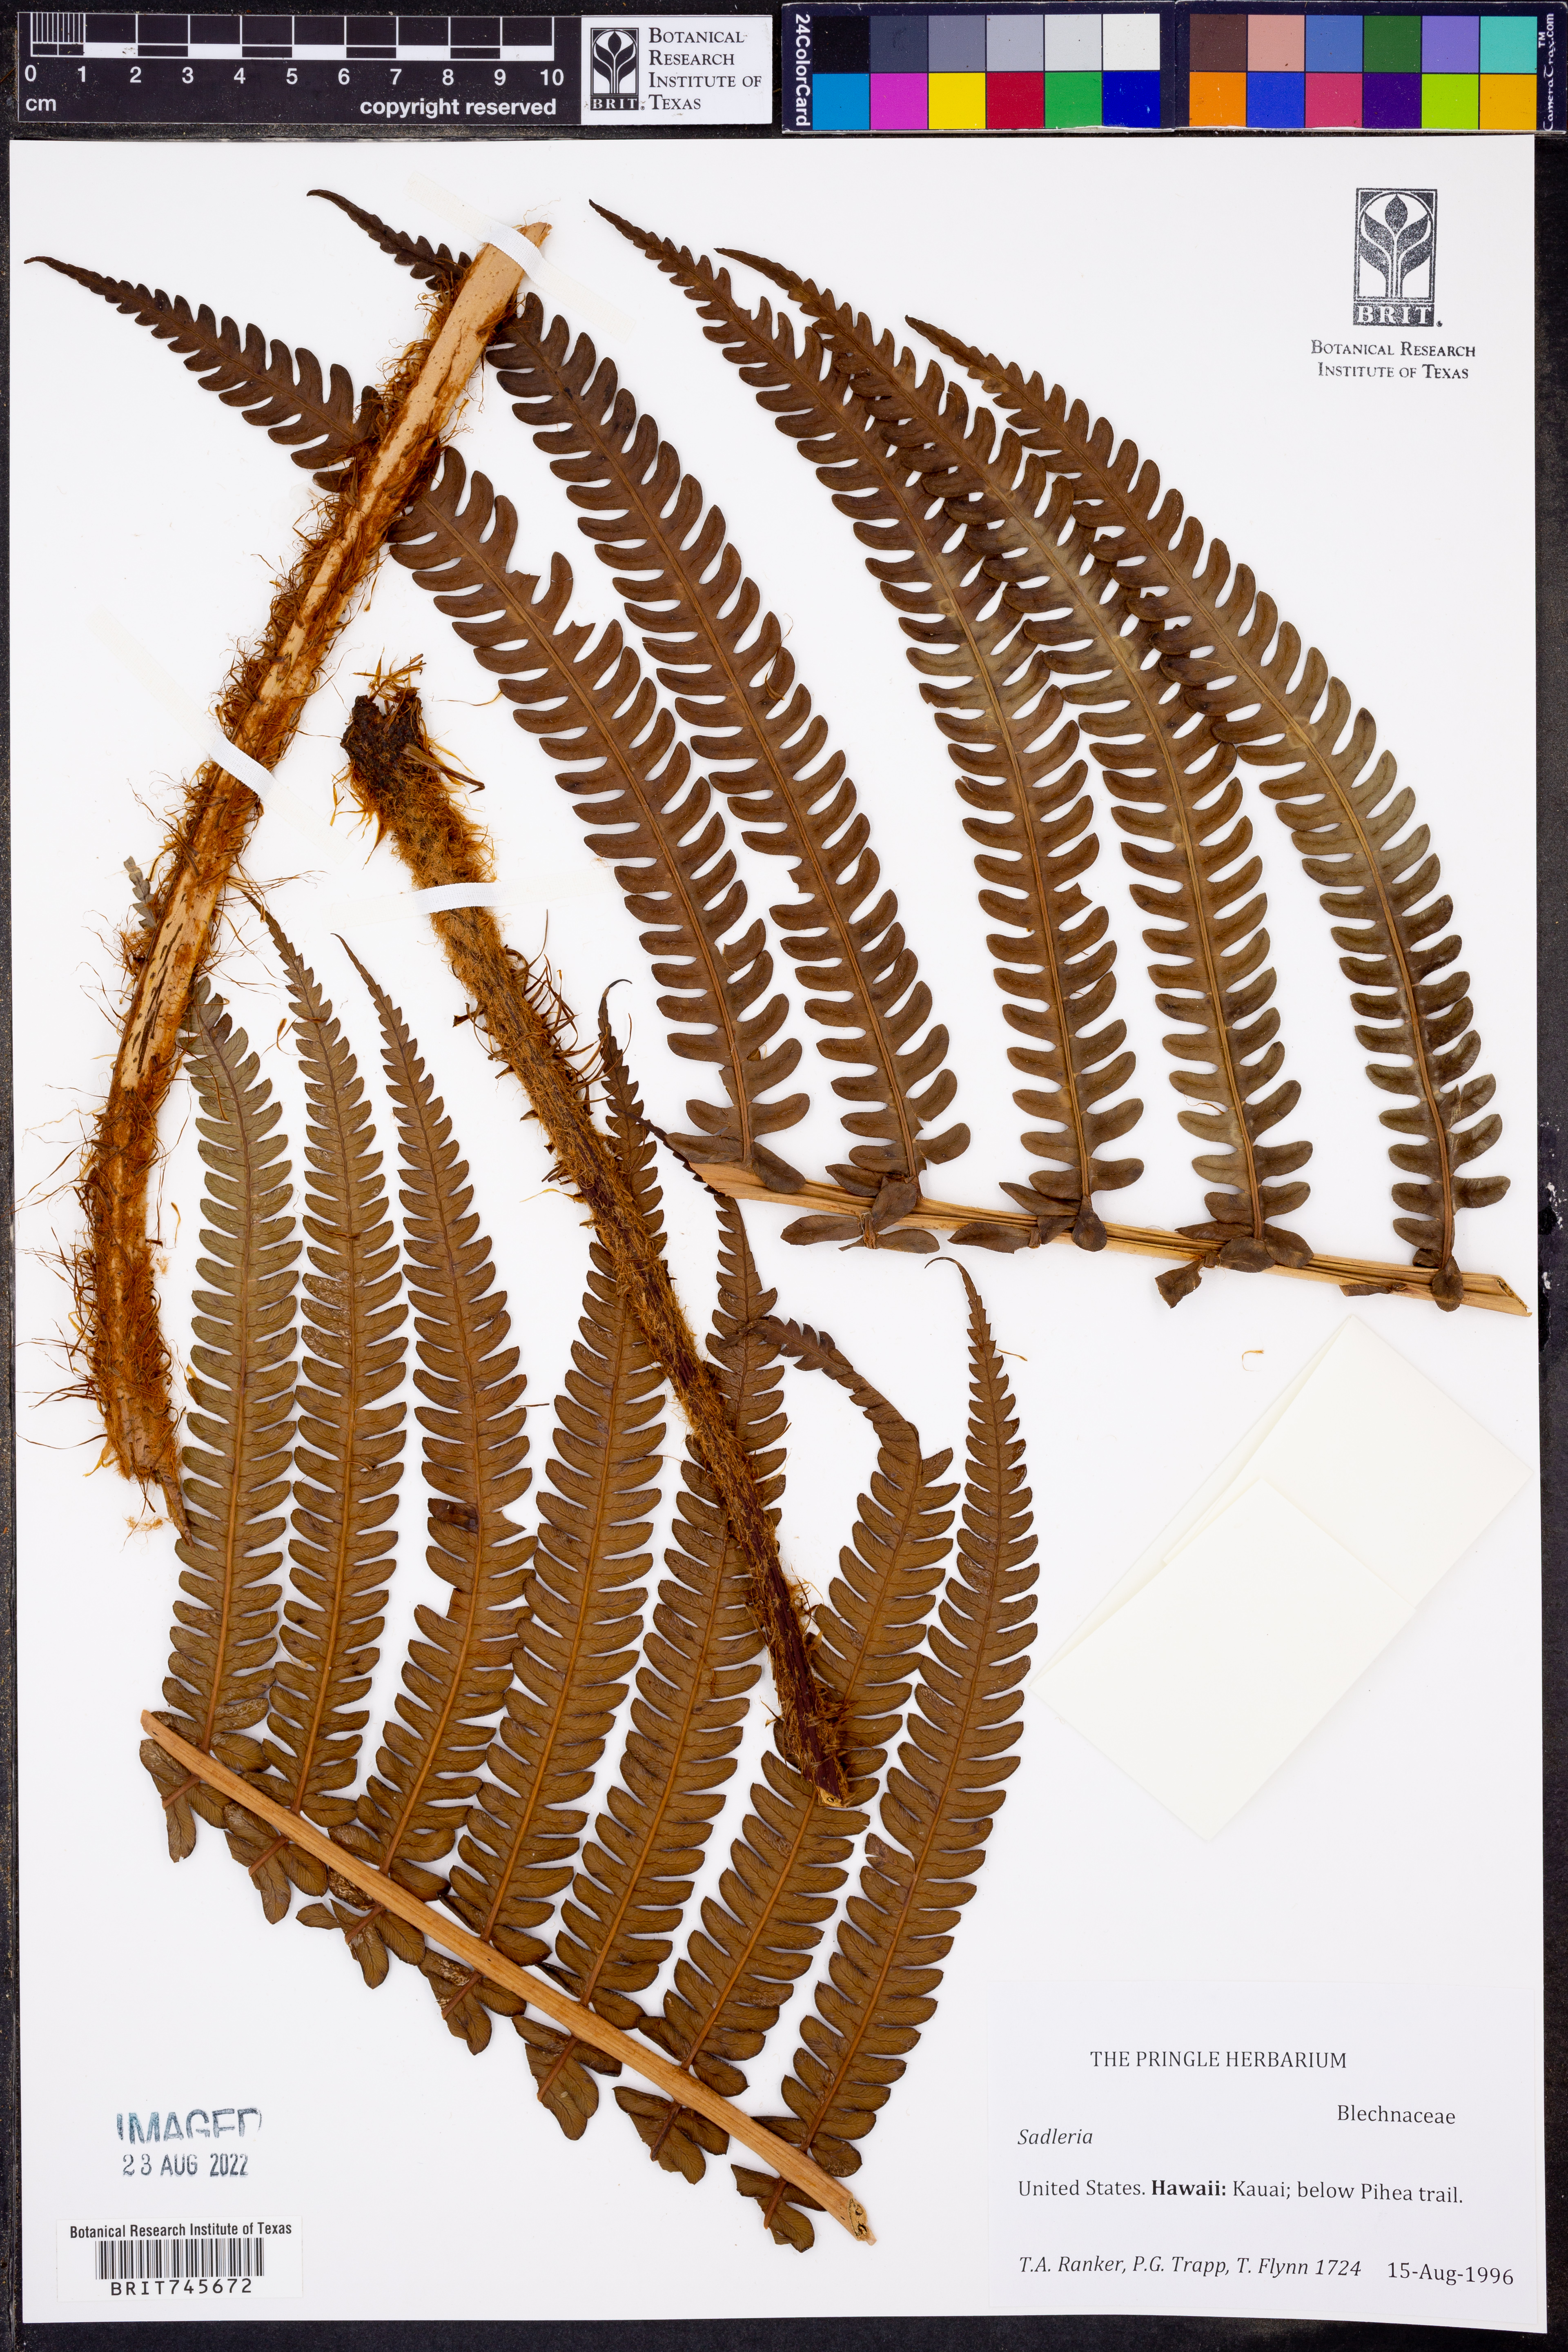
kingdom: Plantae
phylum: Tracheophyta
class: Polypodiopsida
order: Polypodiales
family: Blechnaceae
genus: Sadleria
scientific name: Sadleria
